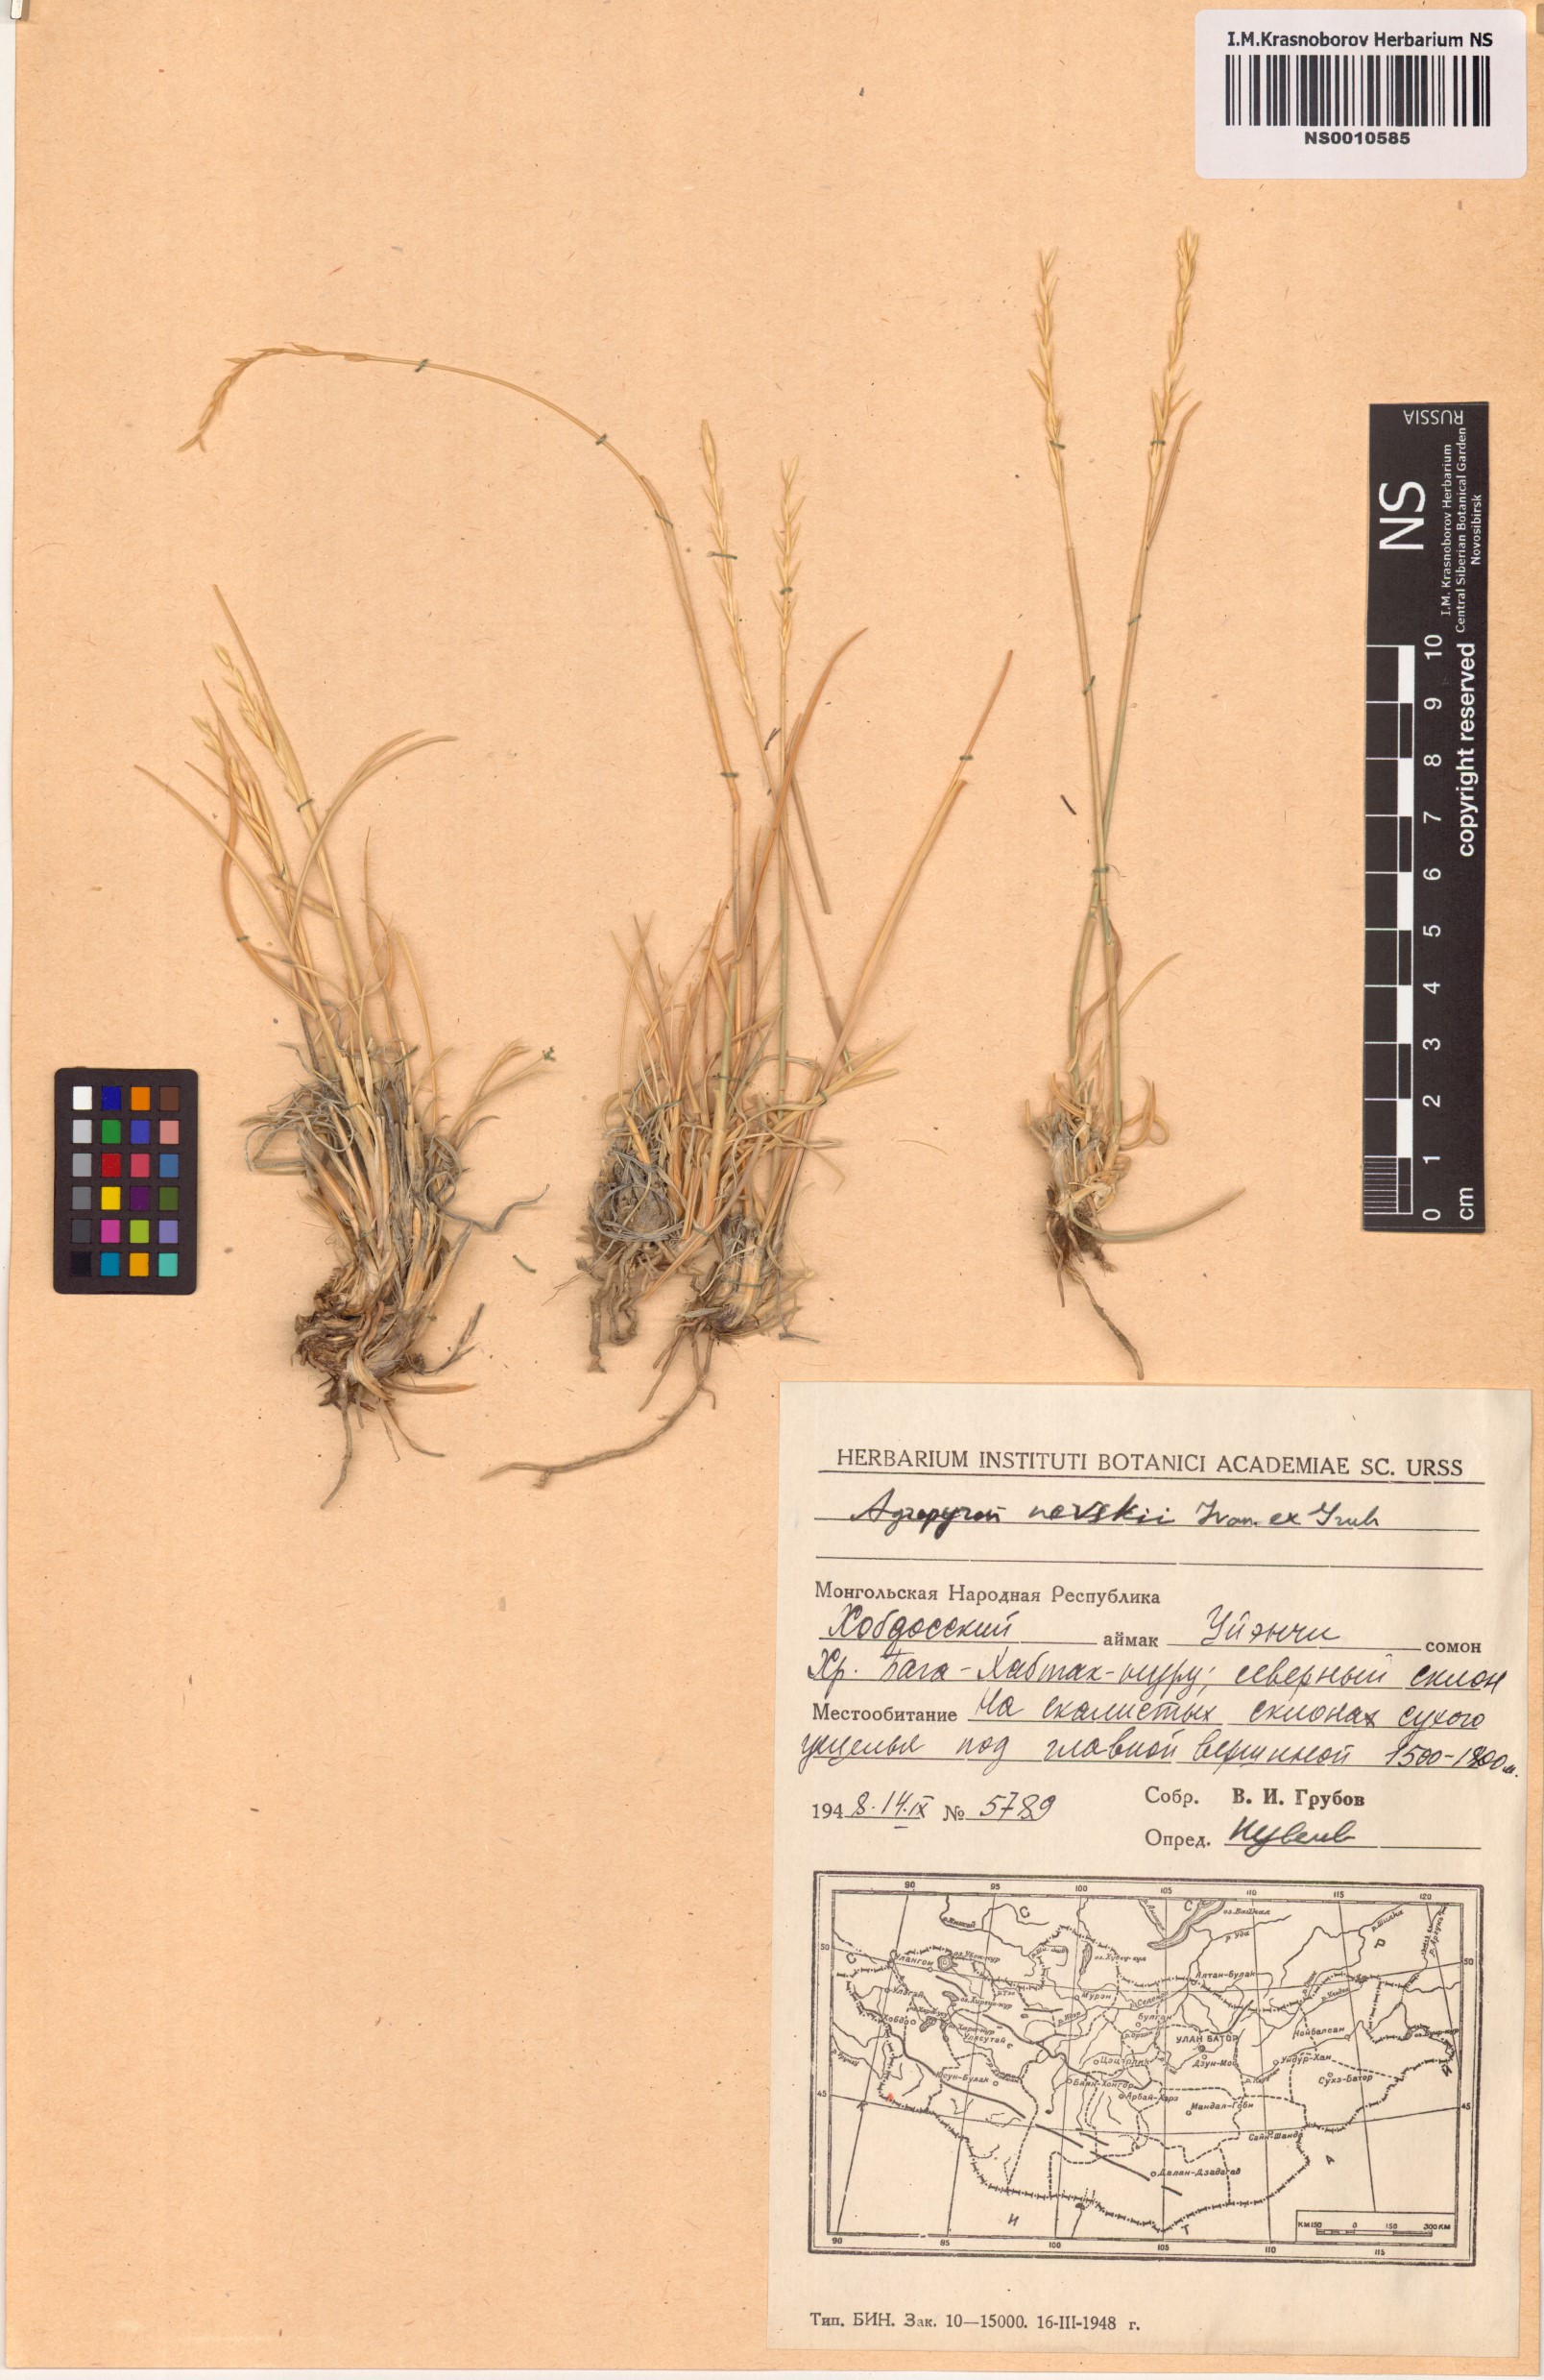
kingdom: Plantae
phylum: Tracheophyta
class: Liliopsida
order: Poales
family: Poaceae
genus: Pseudoroegneria
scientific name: Pseudoroegneria geniculata
